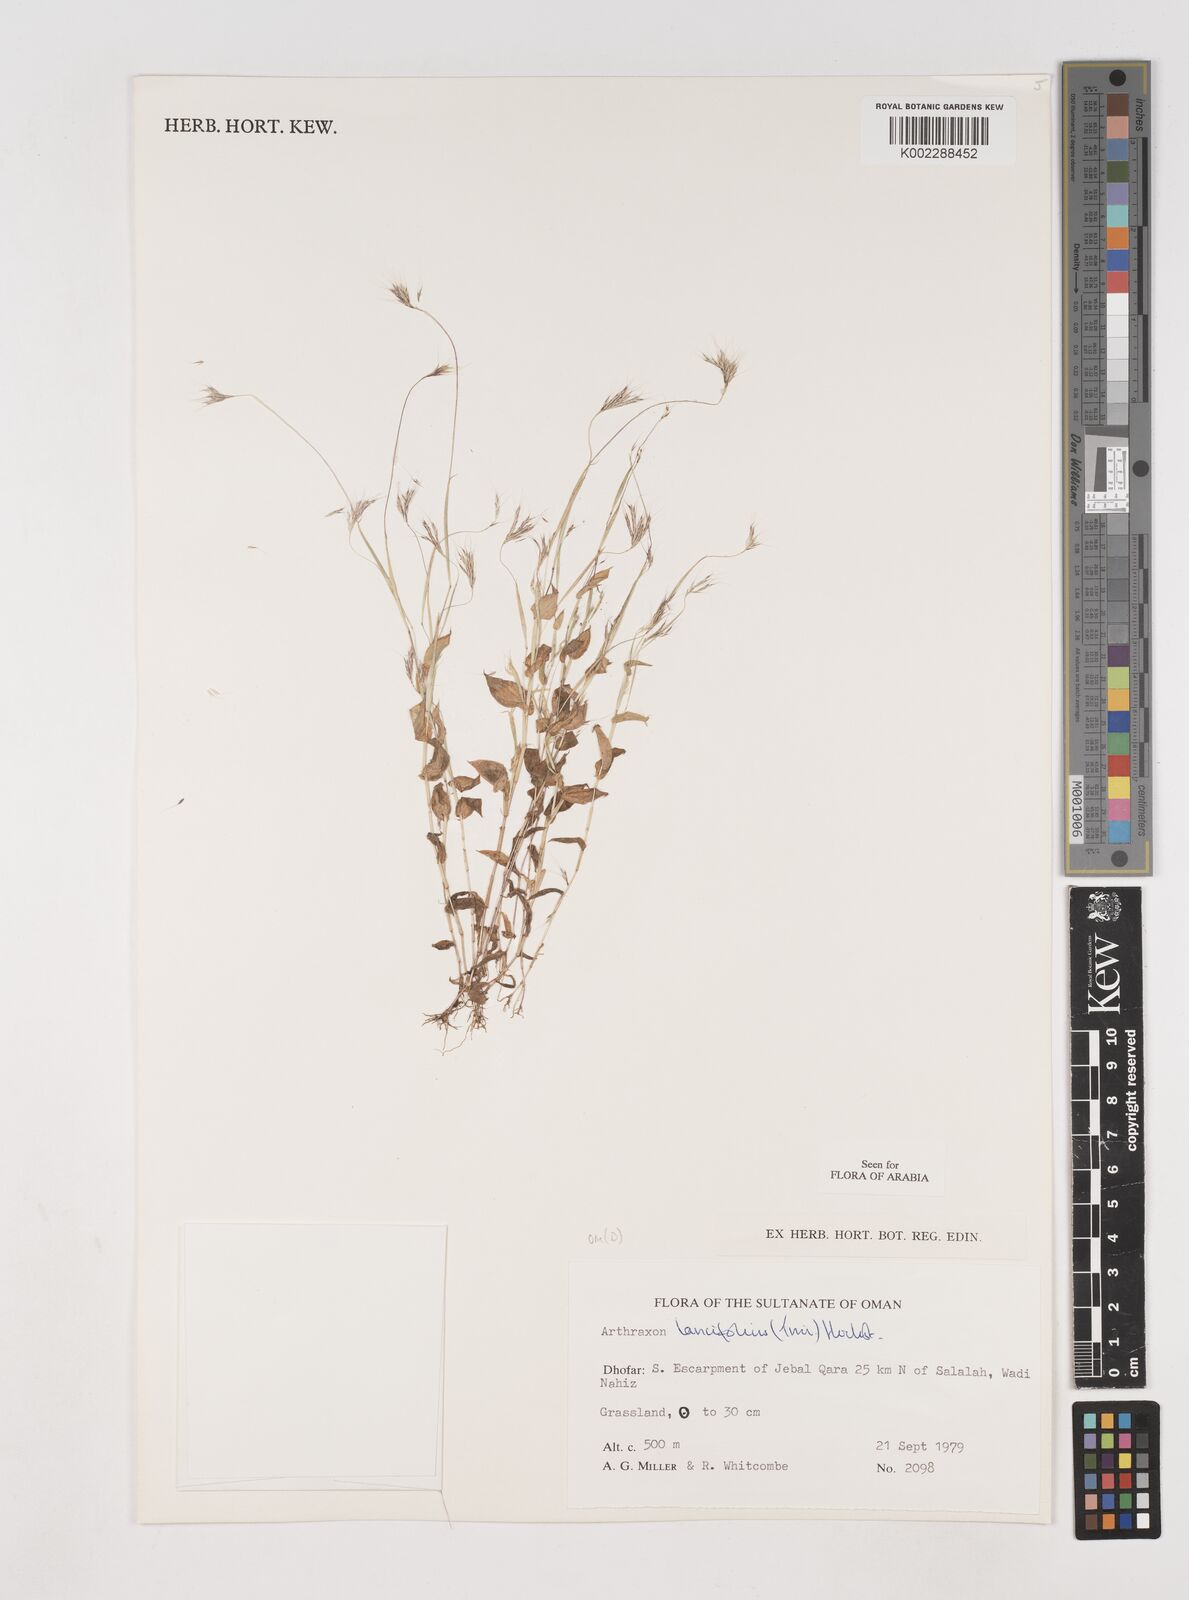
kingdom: Plantae
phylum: Tracheophyta
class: Liliopsida
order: Poales
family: Poaceae
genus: Arthraxon
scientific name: Arthraxon lancifolius
